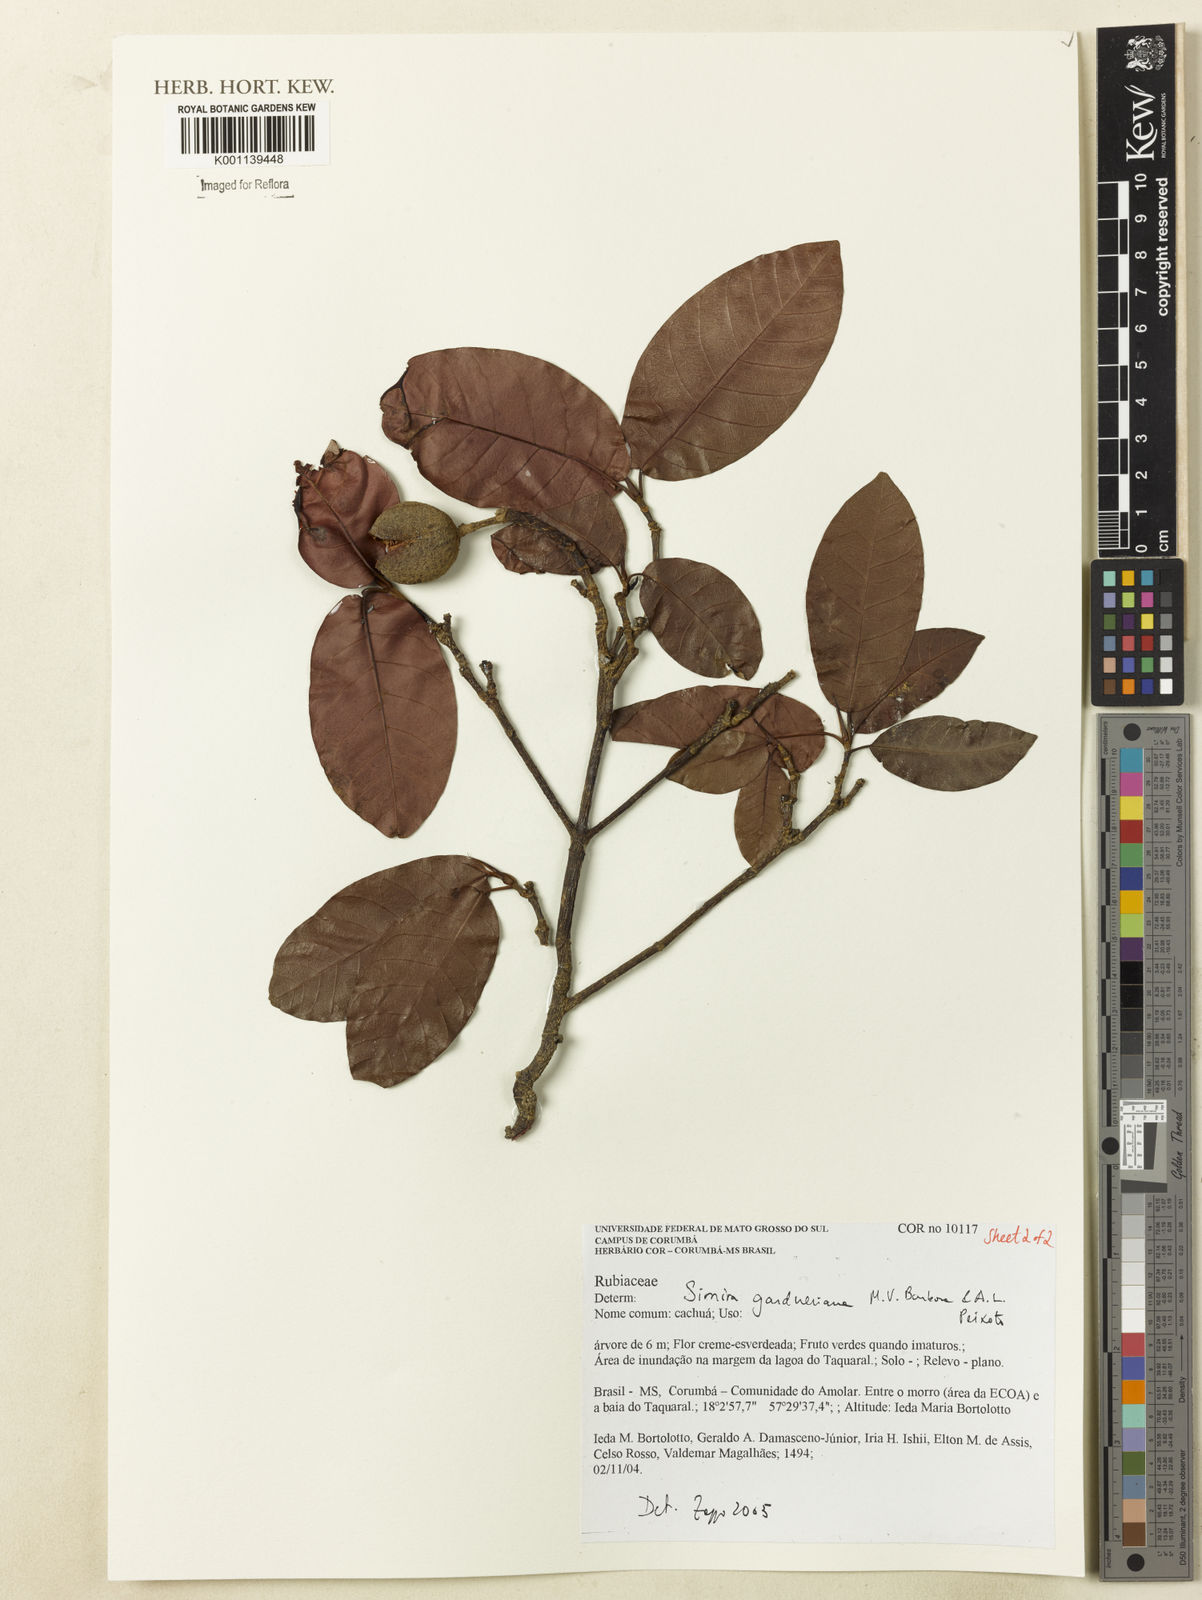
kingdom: Plantae
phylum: Tracheophyta
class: Magnoliopsida
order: Gentianales
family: Rubiaceae
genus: Simira
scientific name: Simira gardneriana
